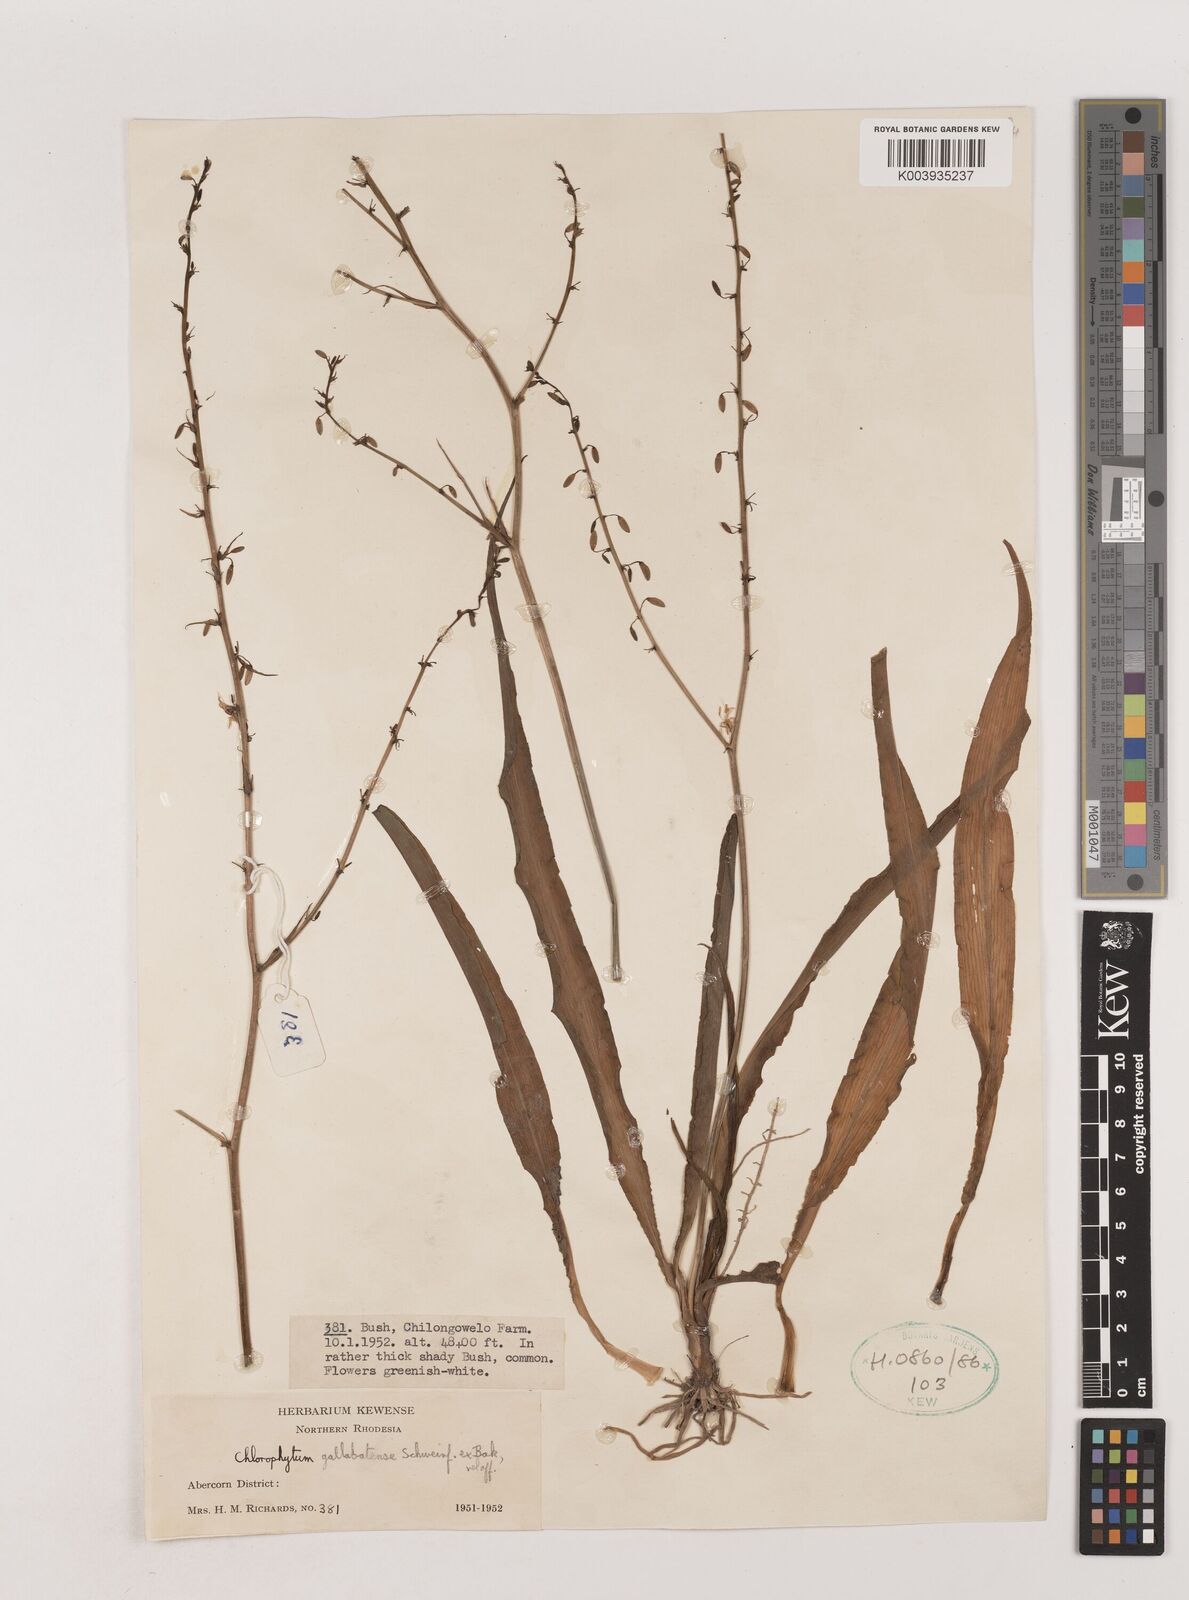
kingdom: Plantae
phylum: Tracheophyta
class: Liliopsida
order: Asparagales
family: Asparagaceae
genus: Chlorophytum
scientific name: Chlorophytum gallabatense
